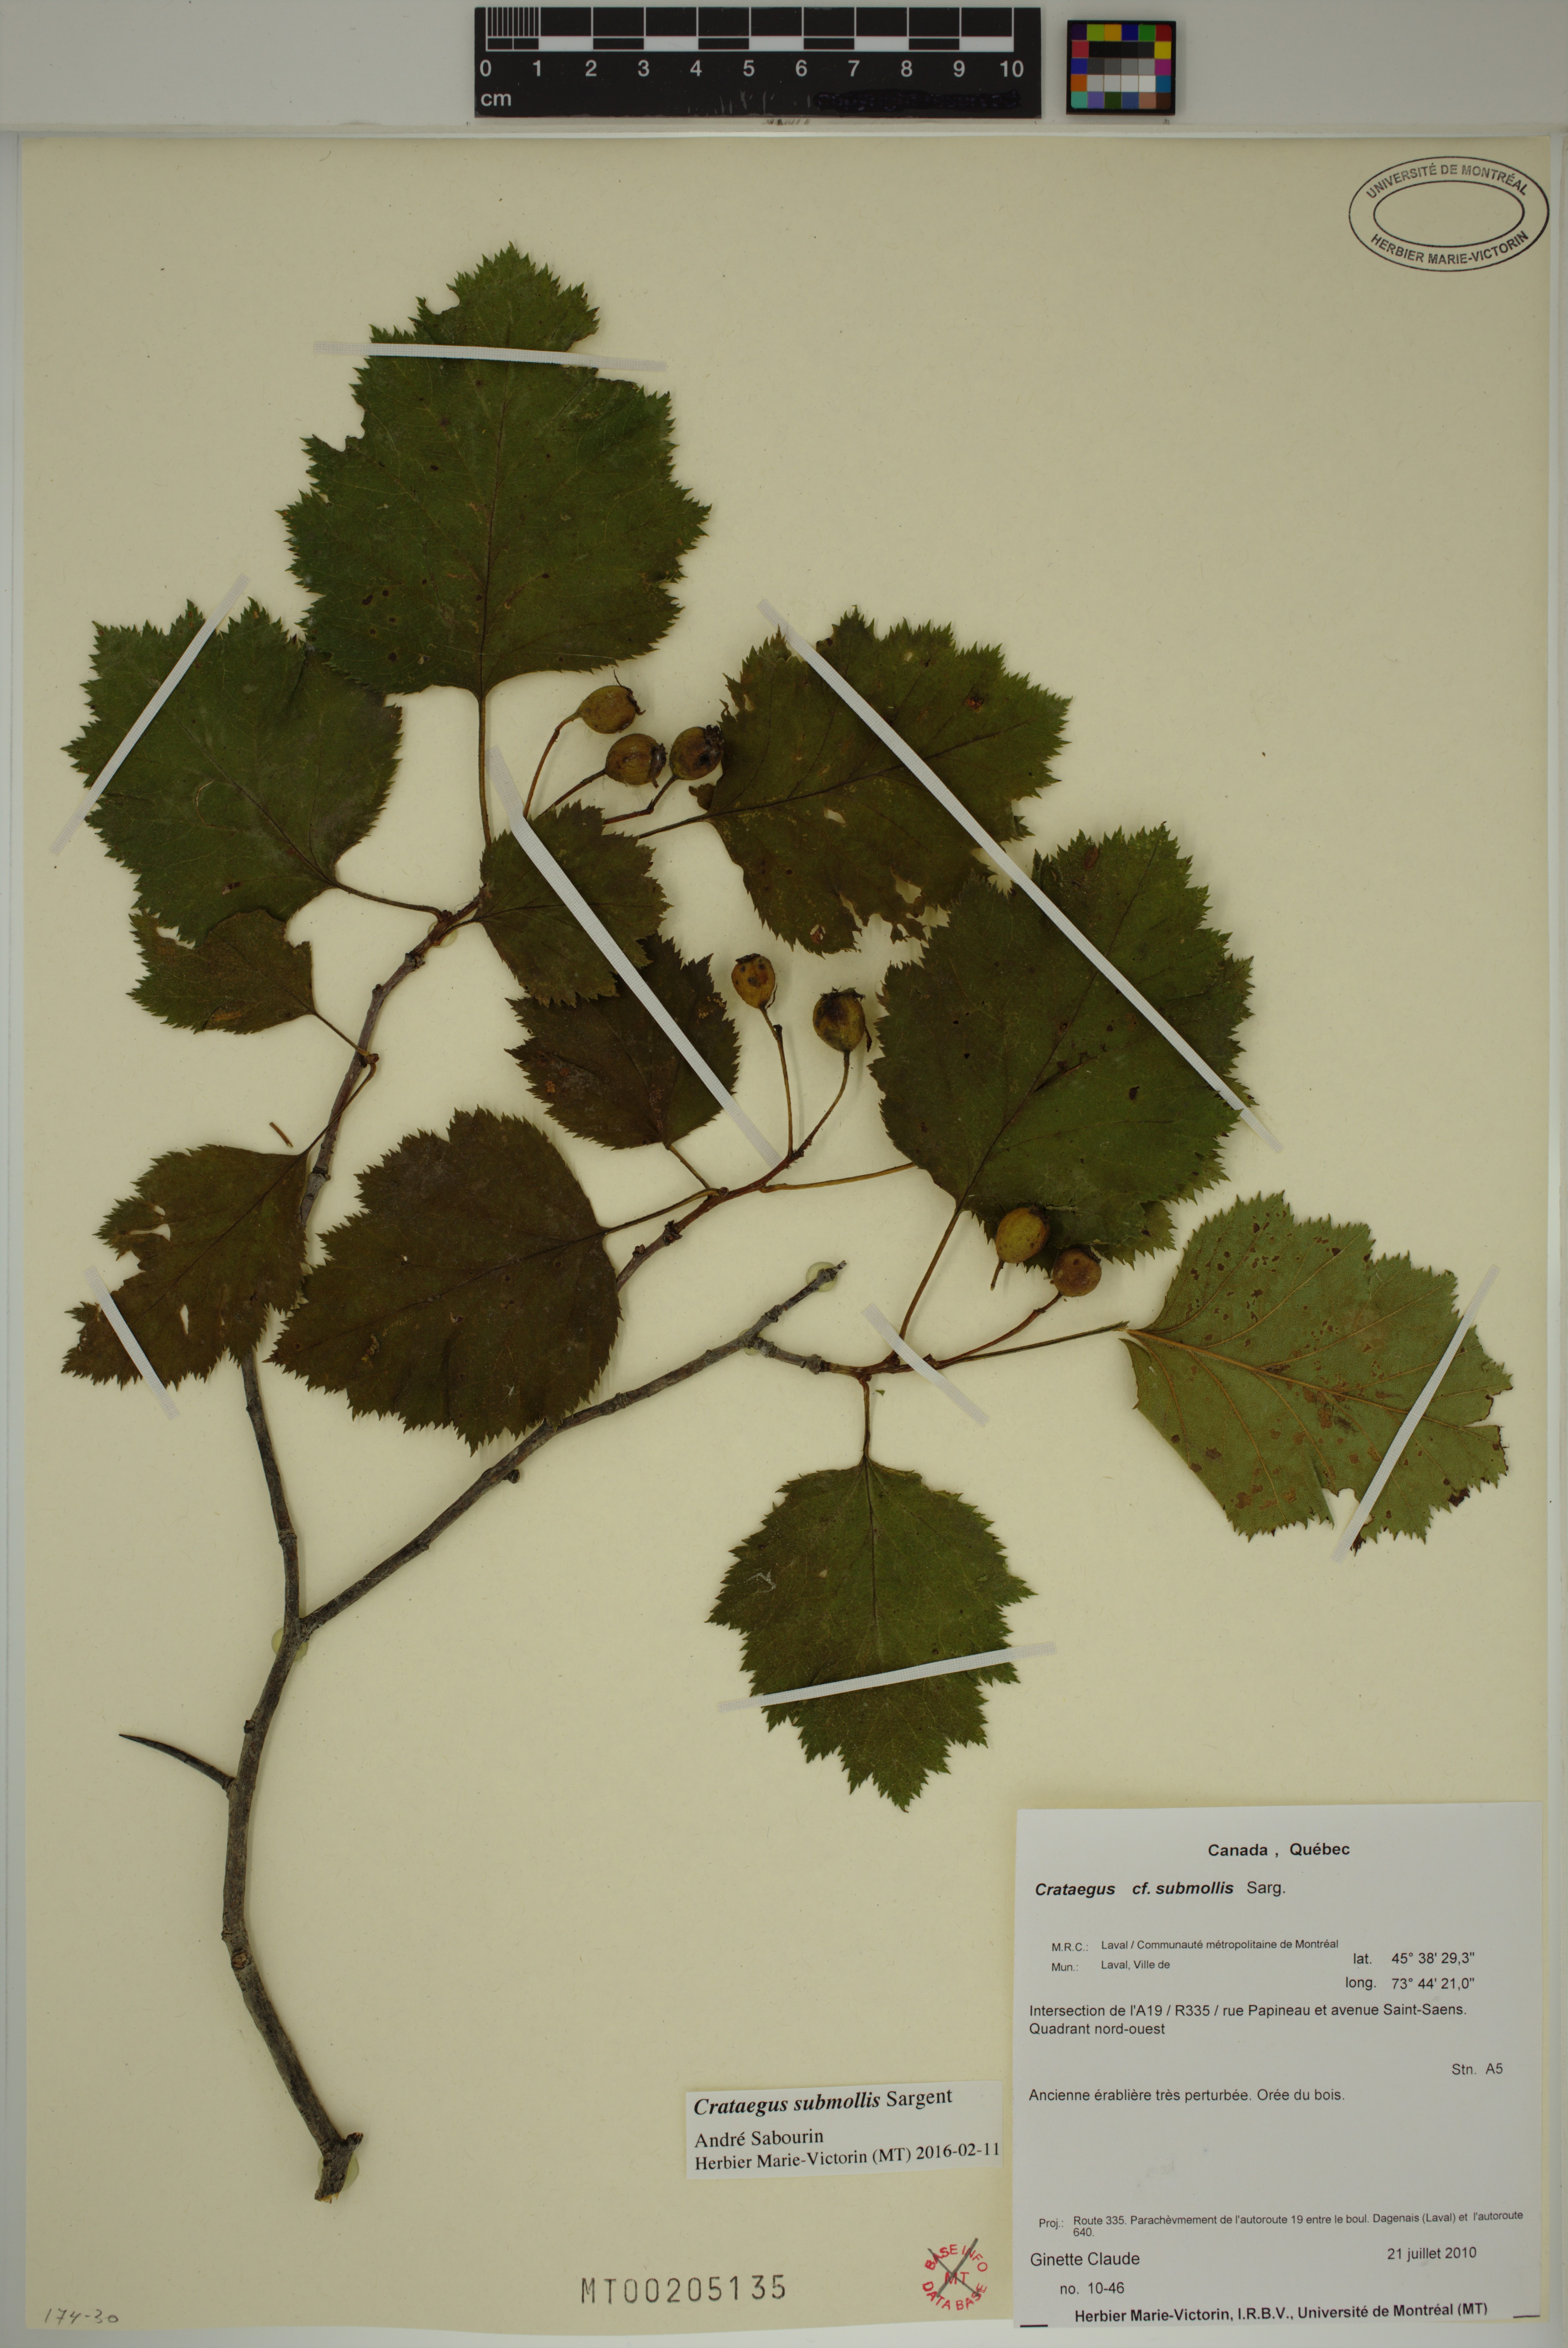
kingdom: Plantae
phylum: Tracheophyta
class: Magnoliopsida
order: Rosales
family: Rosaceae
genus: Crataegus
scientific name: Crataegus submollis
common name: Hairy cockspurthorn
